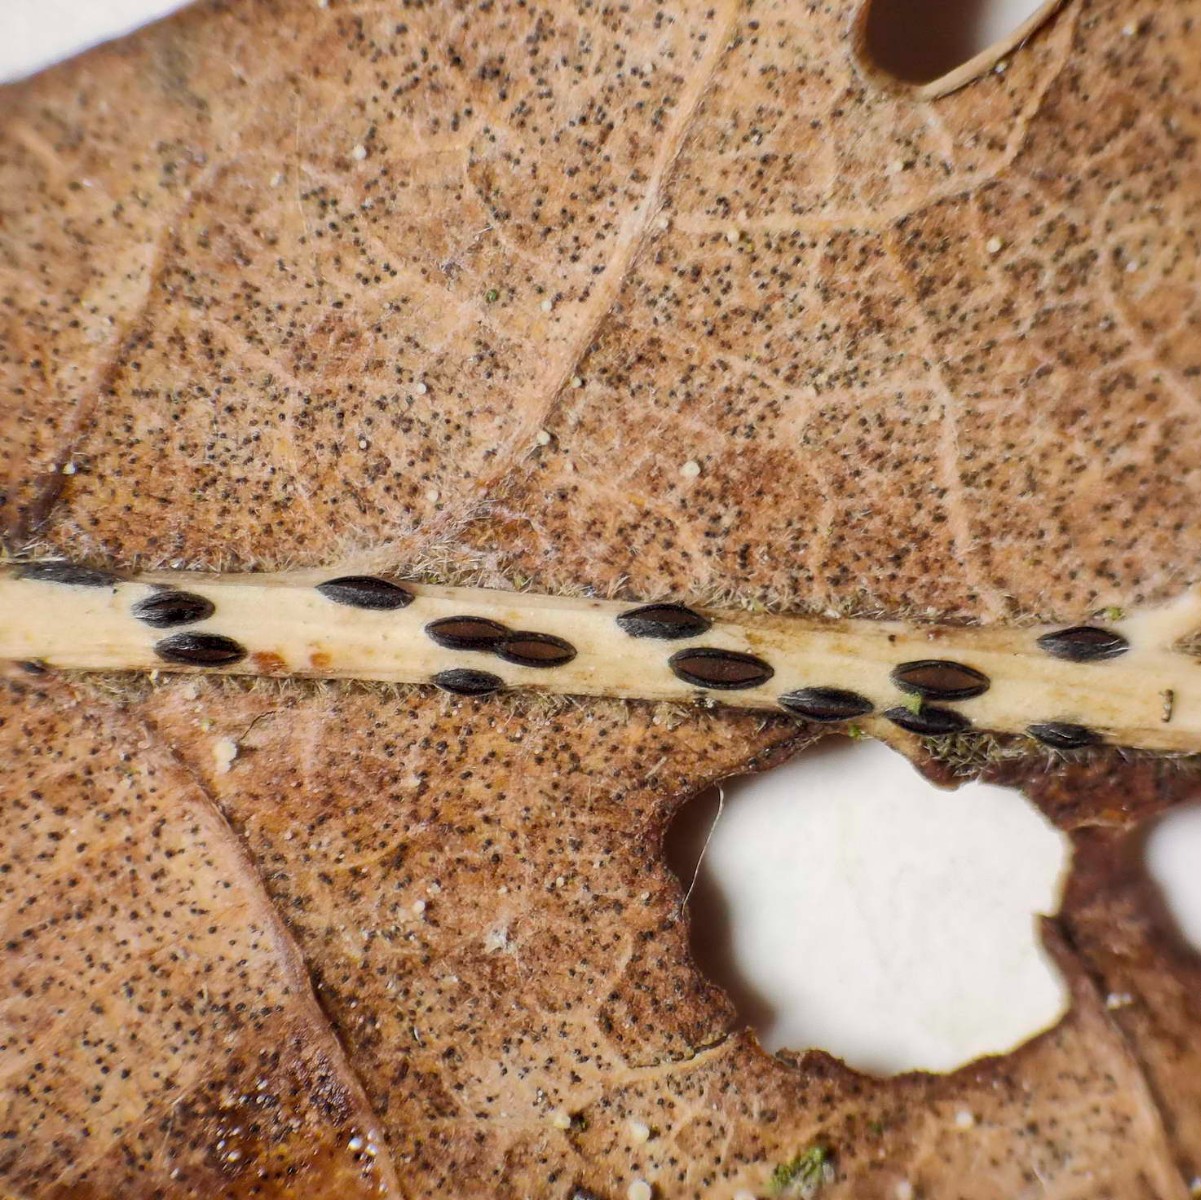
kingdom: Fungi
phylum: Ascomycota
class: Leotiomycetes
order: Rhytismatales
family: Rhytismataceae
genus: Lophodermium
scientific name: Lophodermium petiolicola
